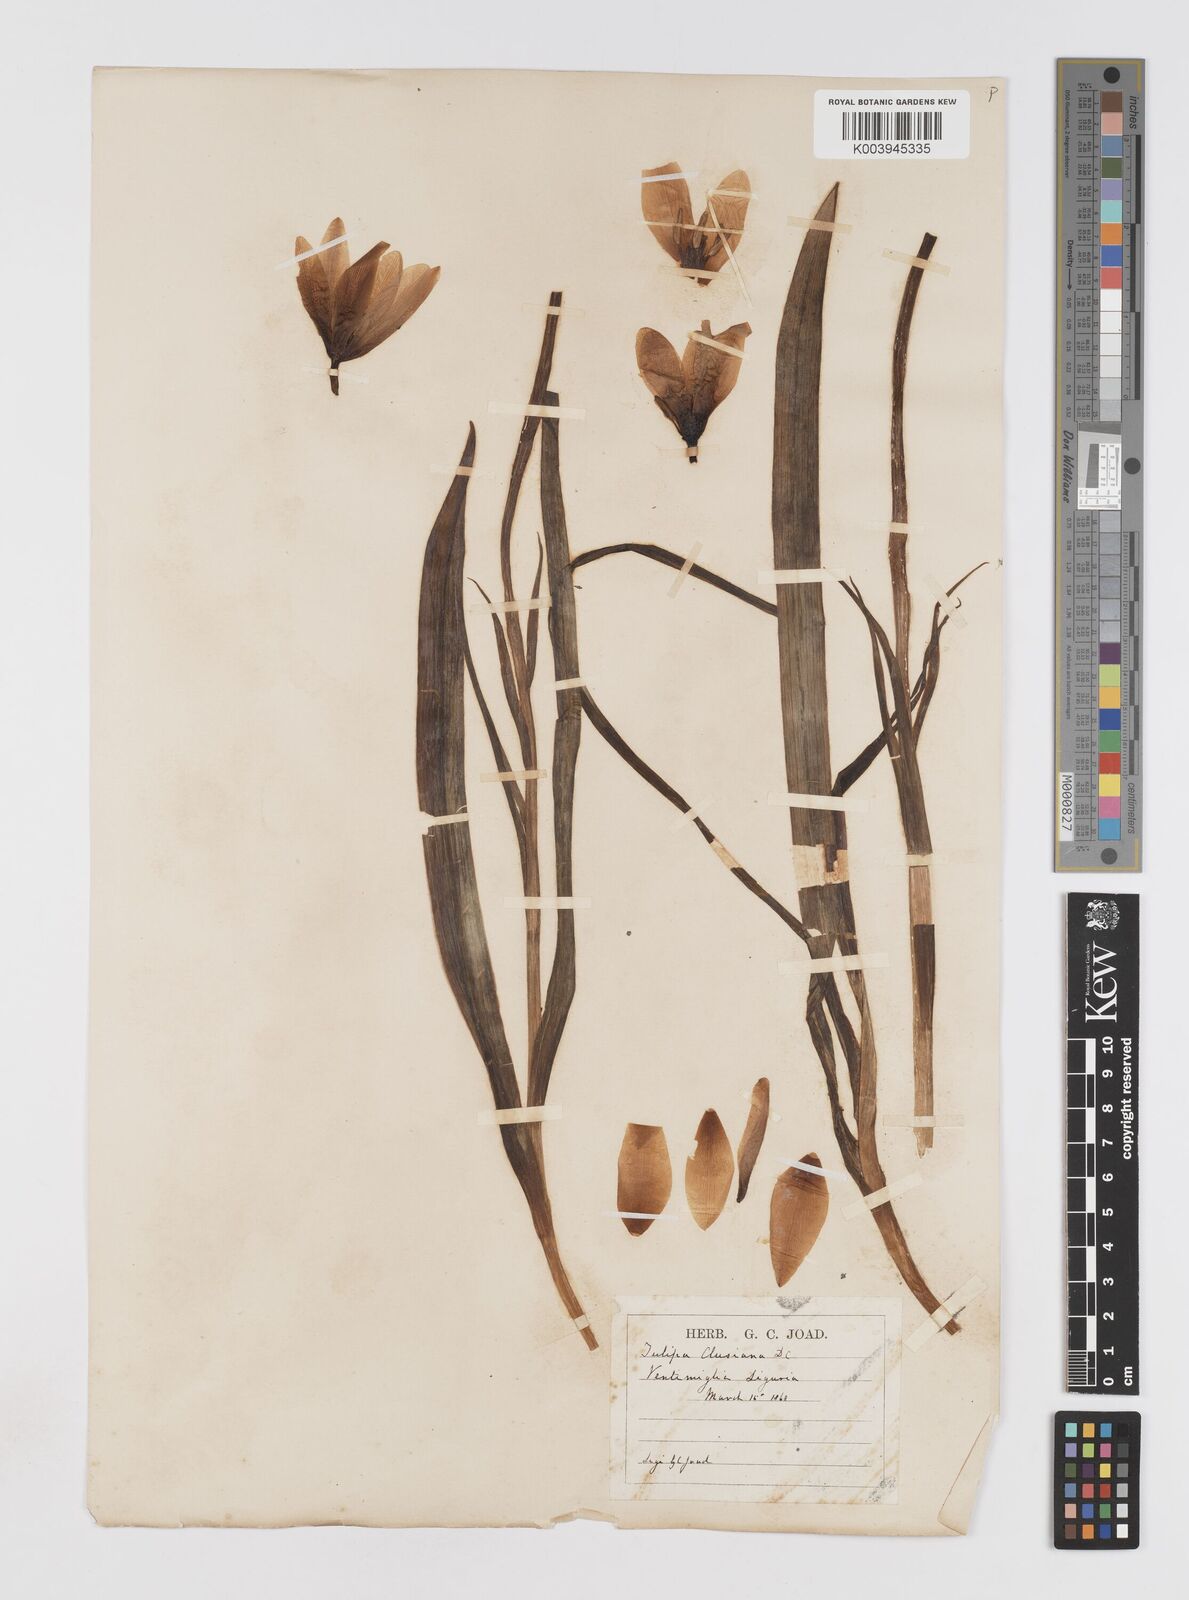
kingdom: Plantae
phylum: Tracheophyta
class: Liliopsida
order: Liliales
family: Liliaceae
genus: Tulipa
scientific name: Tulipa clusiana
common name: Lady tulip
